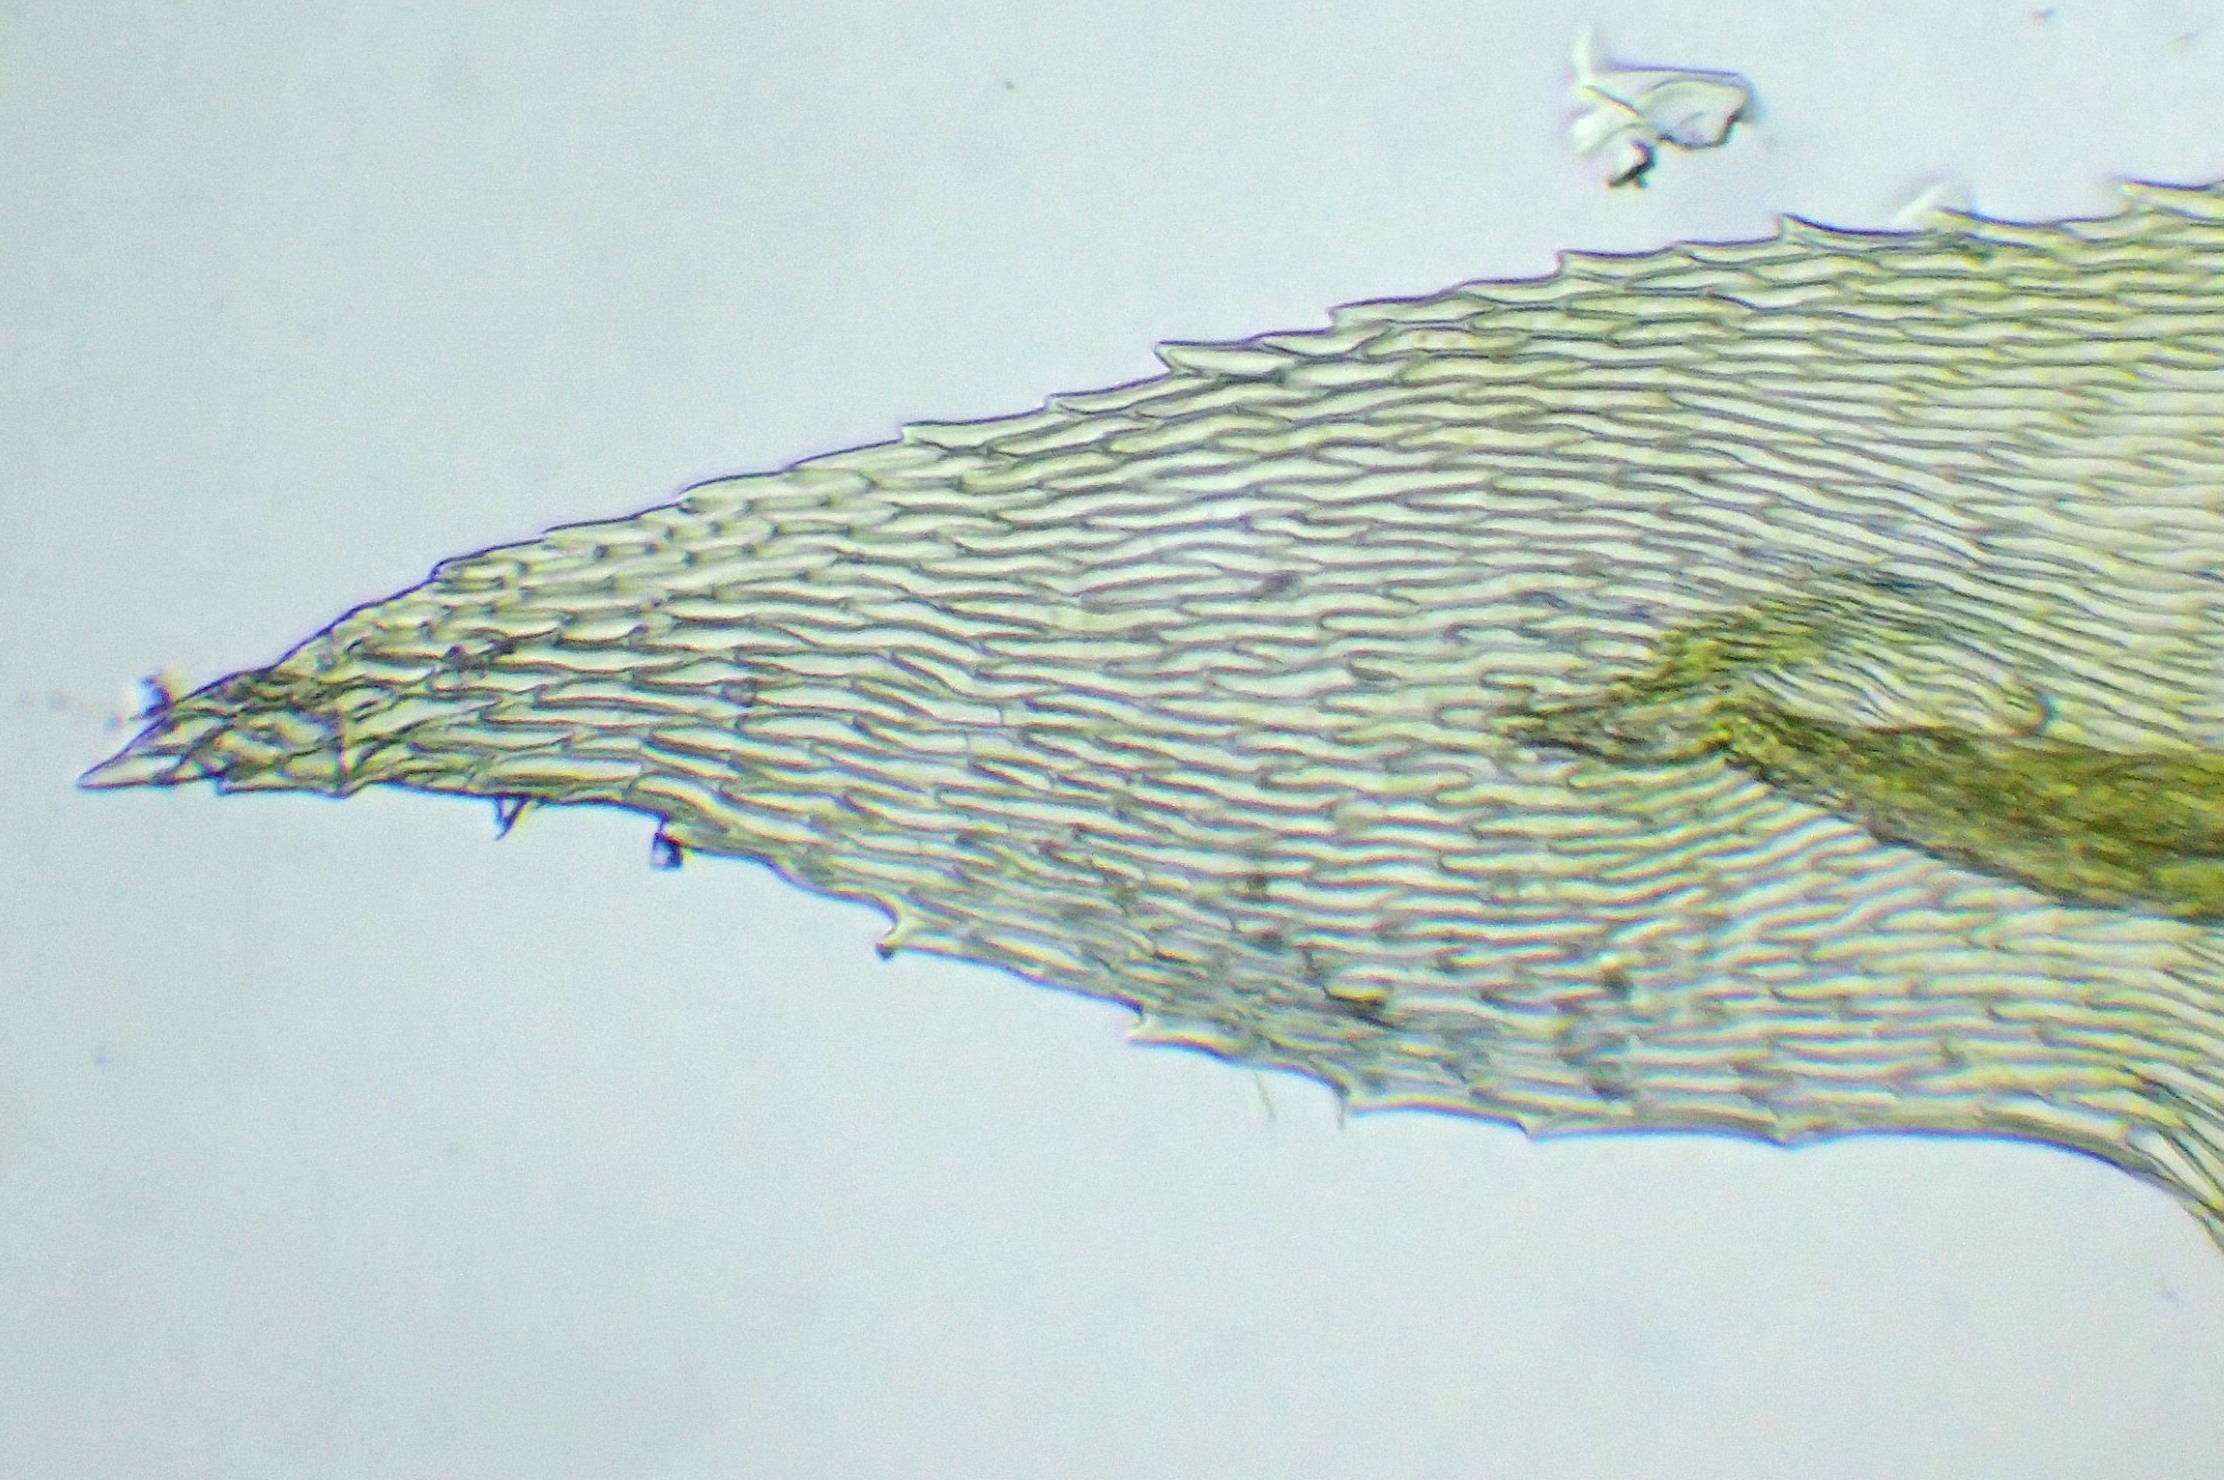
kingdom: Plantae
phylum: Bryophyta
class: Bryopsida
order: Hypnales
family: Brachytheciaceae
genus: Eurhynchium
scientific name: Eurhynchium striatum
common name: Stribet næbmos
